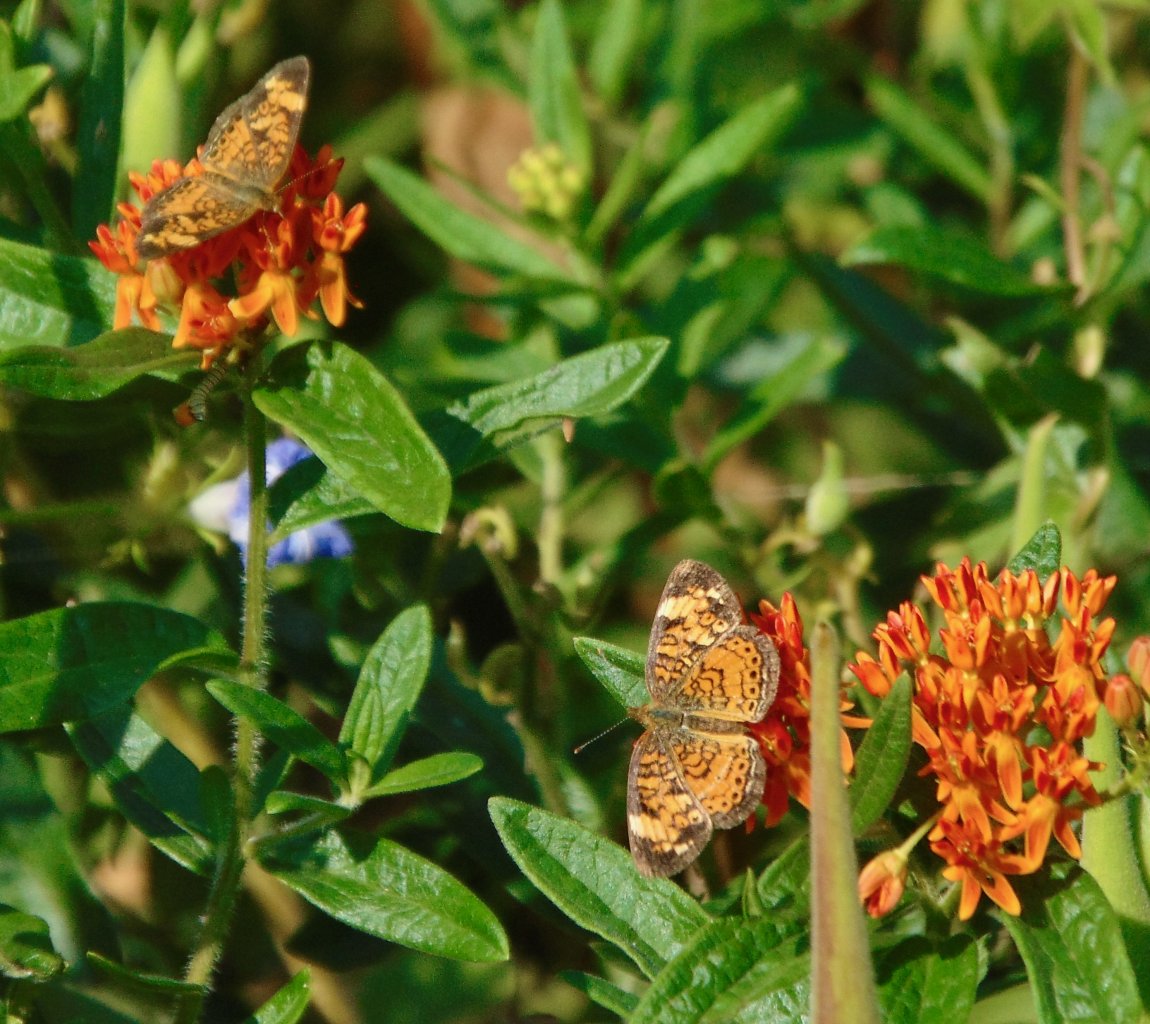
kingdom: Animalia
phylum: Arthropoda
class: Insecta
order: Lepidoptera
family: Nymphalidae
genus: Phyciodes
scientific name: Phyciodes tharos
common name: Pearl Crescent
